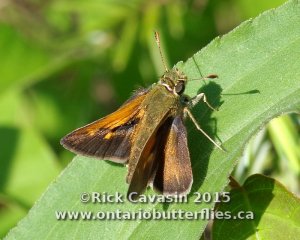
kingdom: Animalia
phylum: Arthropoda
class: Insecta
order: Lepidoptera
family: Hesperiidae
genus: Polites
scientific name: Polites themistocles
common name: Tawny-edged Skipper
